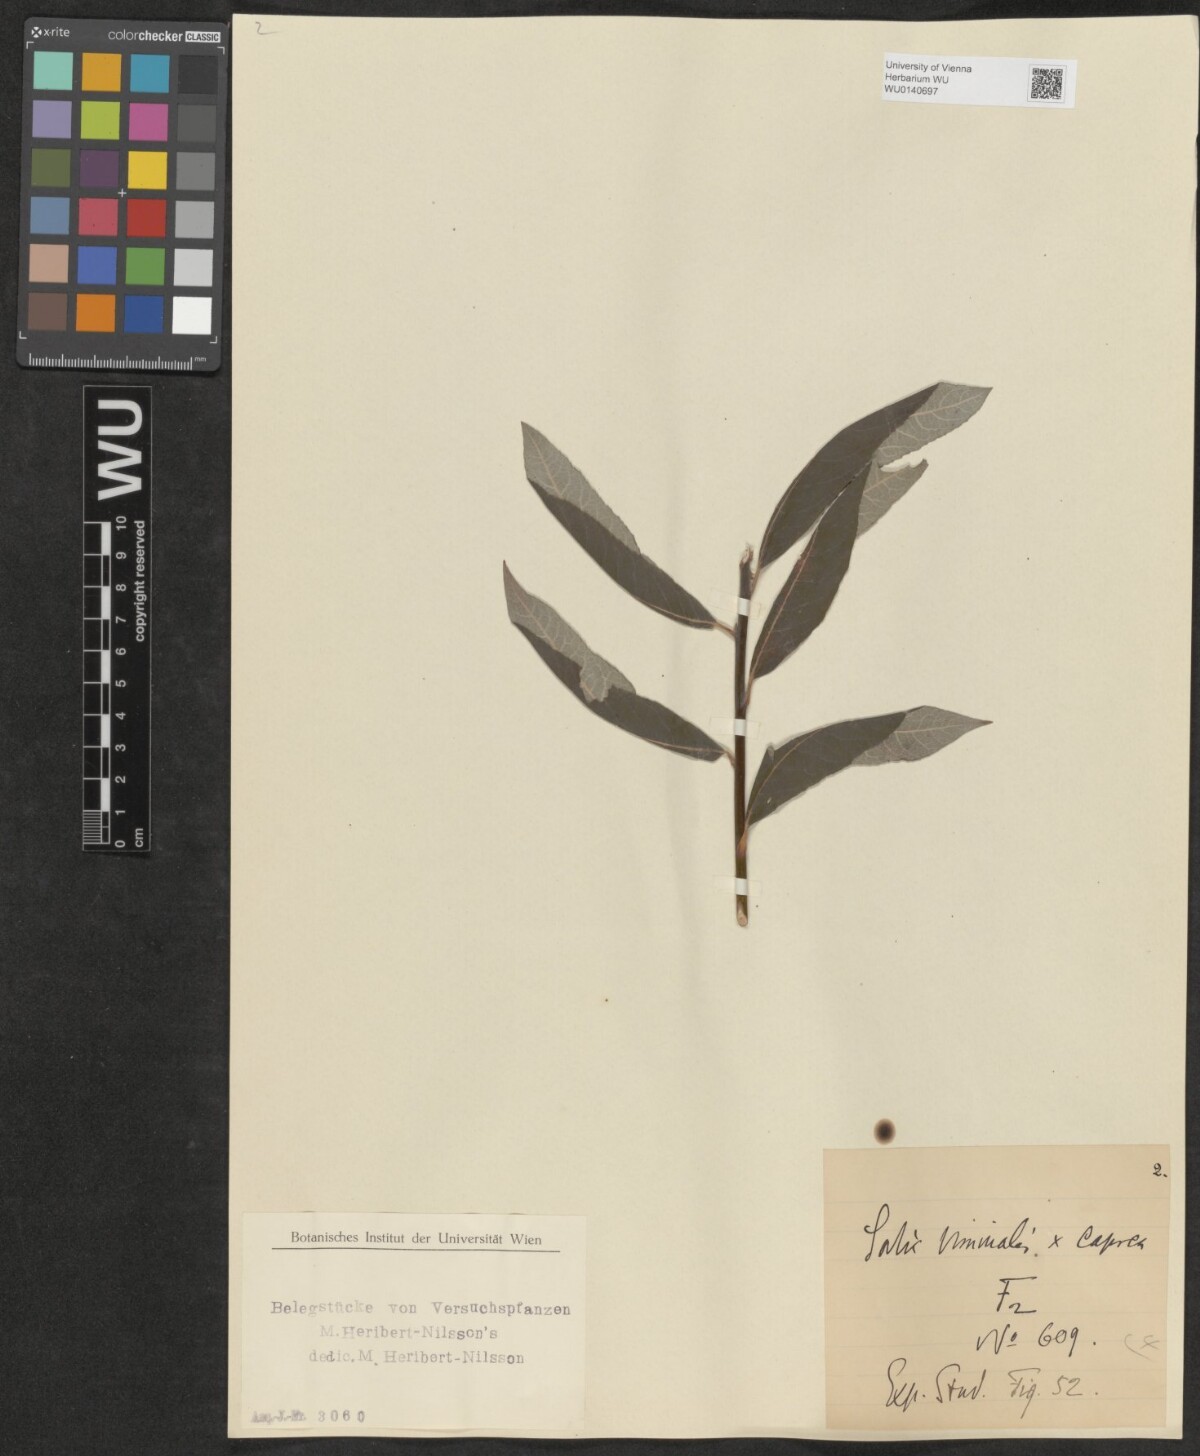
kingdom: Plantae
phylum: Tracheophyta
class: Magnoliopsida
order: Malpighiales
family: Salicaceae
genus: Salix
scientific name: Salix
